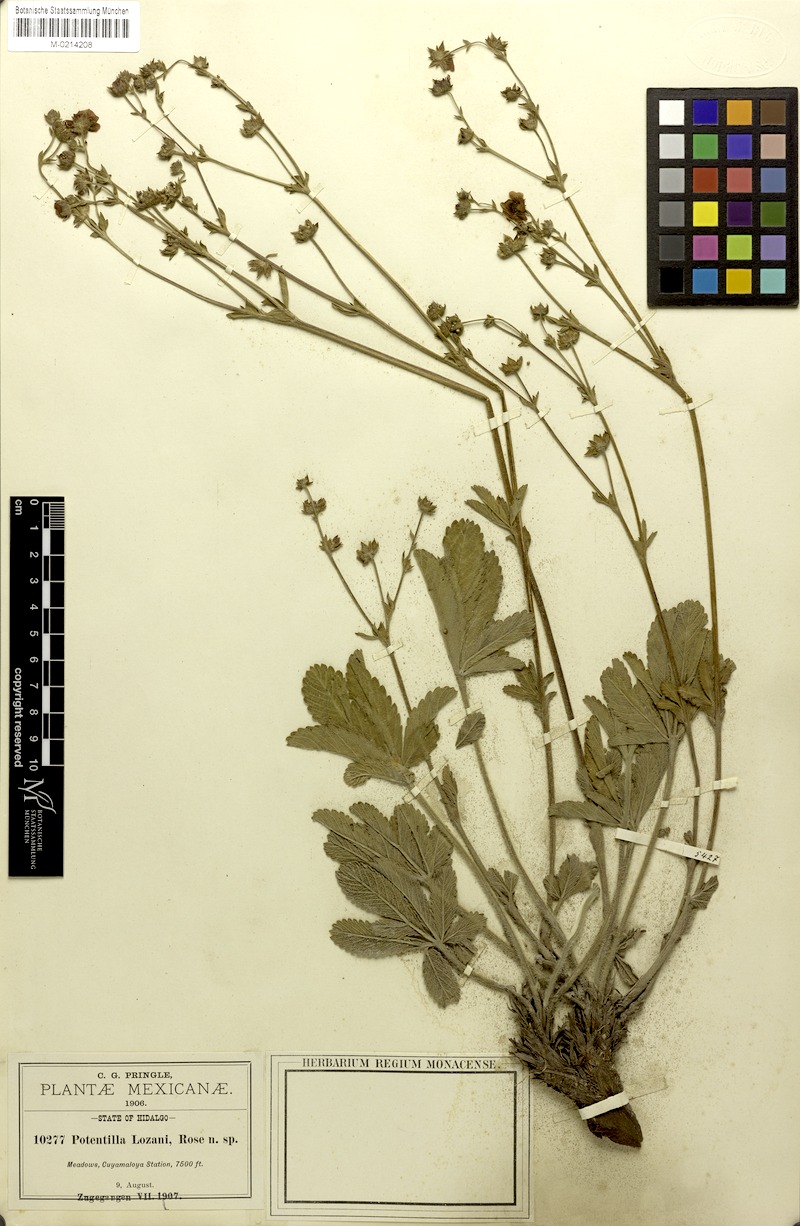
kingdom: Plantae
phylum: Tracheophyta
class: Magnoliopsida
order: Rosales
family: Rosaceae
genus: Potentilla
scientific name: Potentilla haematochrus
